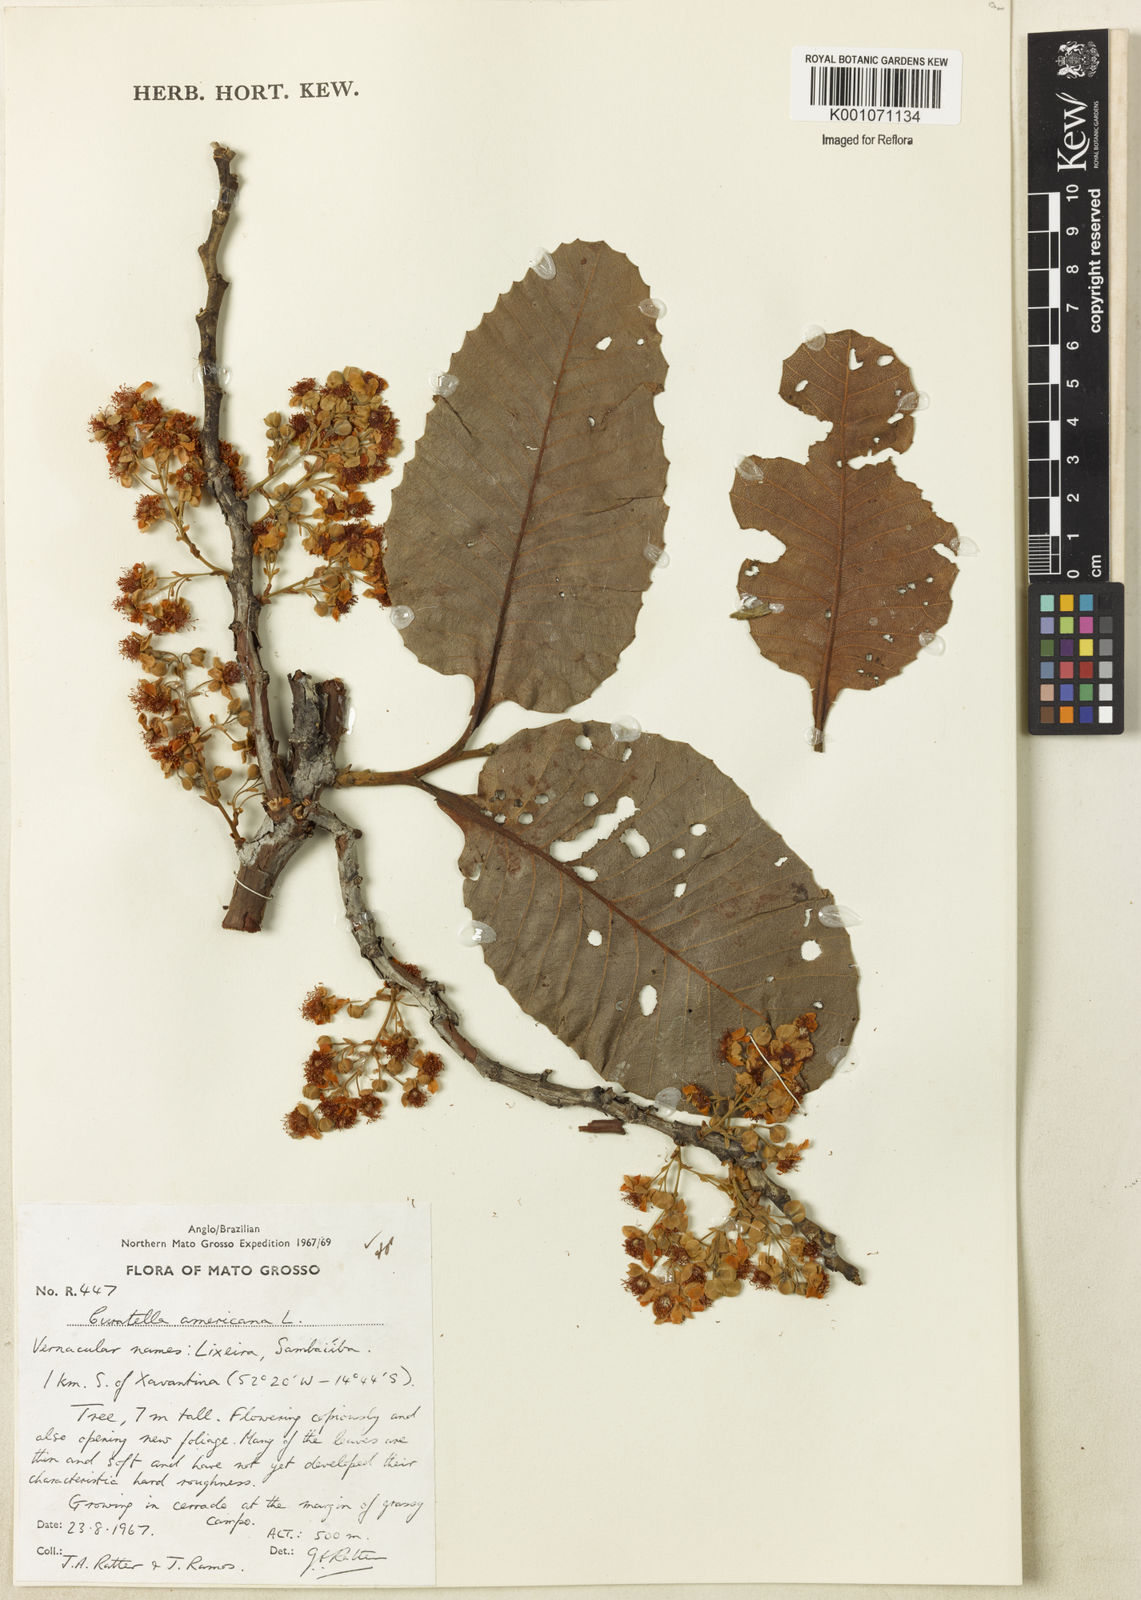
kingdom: Plantae
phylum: Tracheophyta
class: Magnoliopsida
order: Dilleniales
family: Dilleniaceae
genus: Curatella
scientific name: Curatella americana
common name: Sandpaper tree
